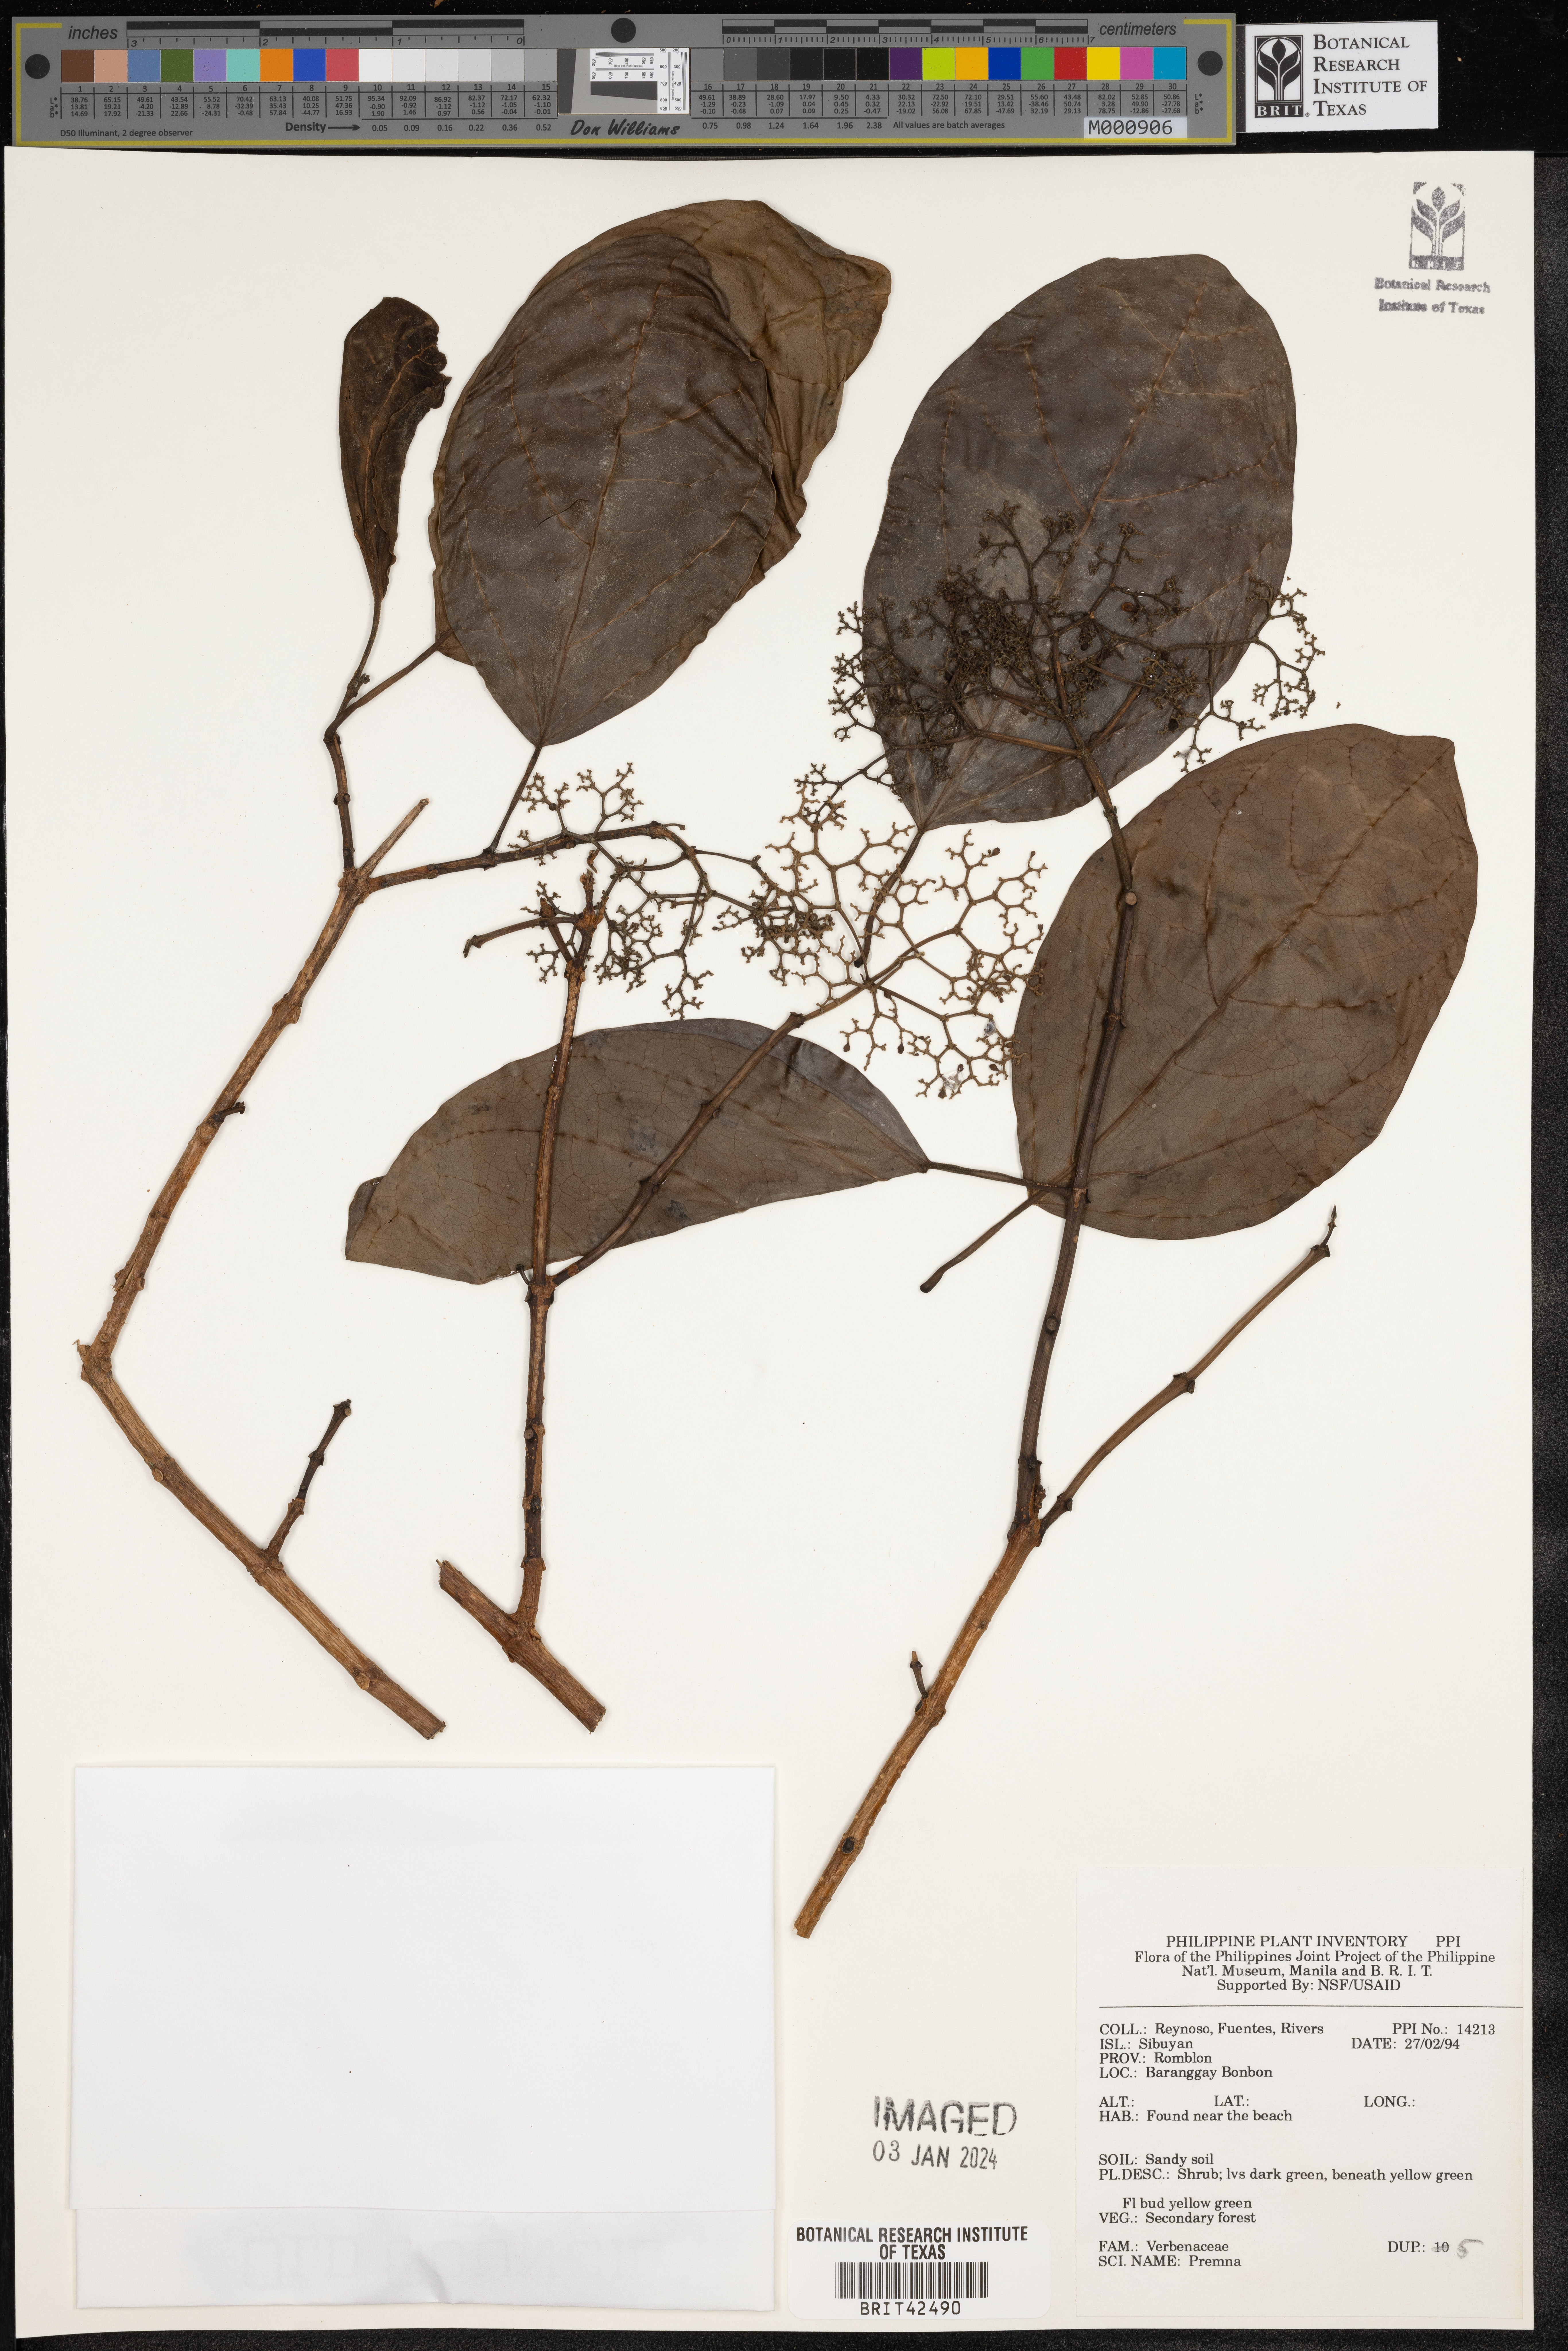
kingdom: Plantae
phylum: Tracheophyta
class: Magnoliopsida
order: Lamiales
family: Lamiaceae
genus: Premna
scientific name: Premna
